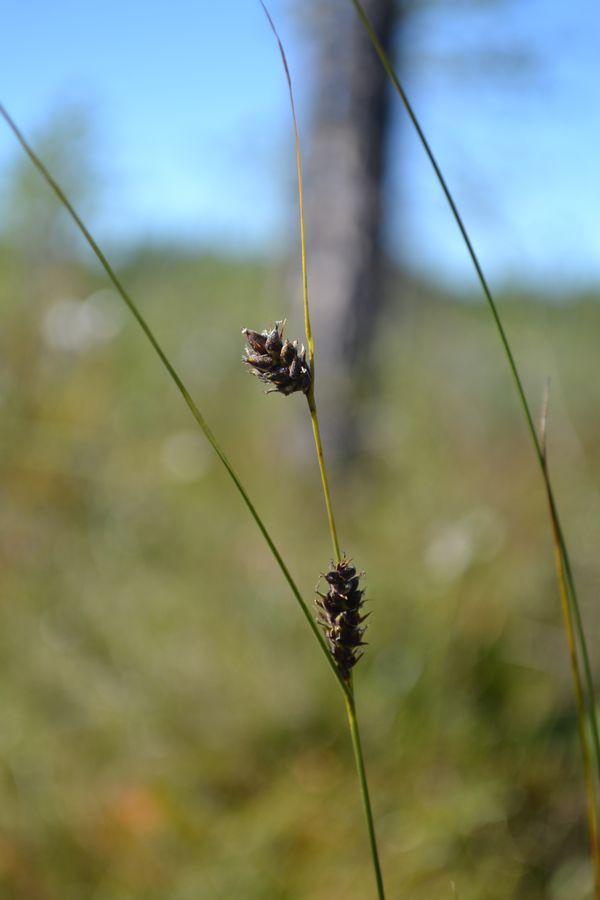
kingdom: Plantae
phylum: Tracheophyta
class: Liliopsida
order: Poales
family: Cyperaceae
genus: Carex
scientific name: Carex lasiocarpa
